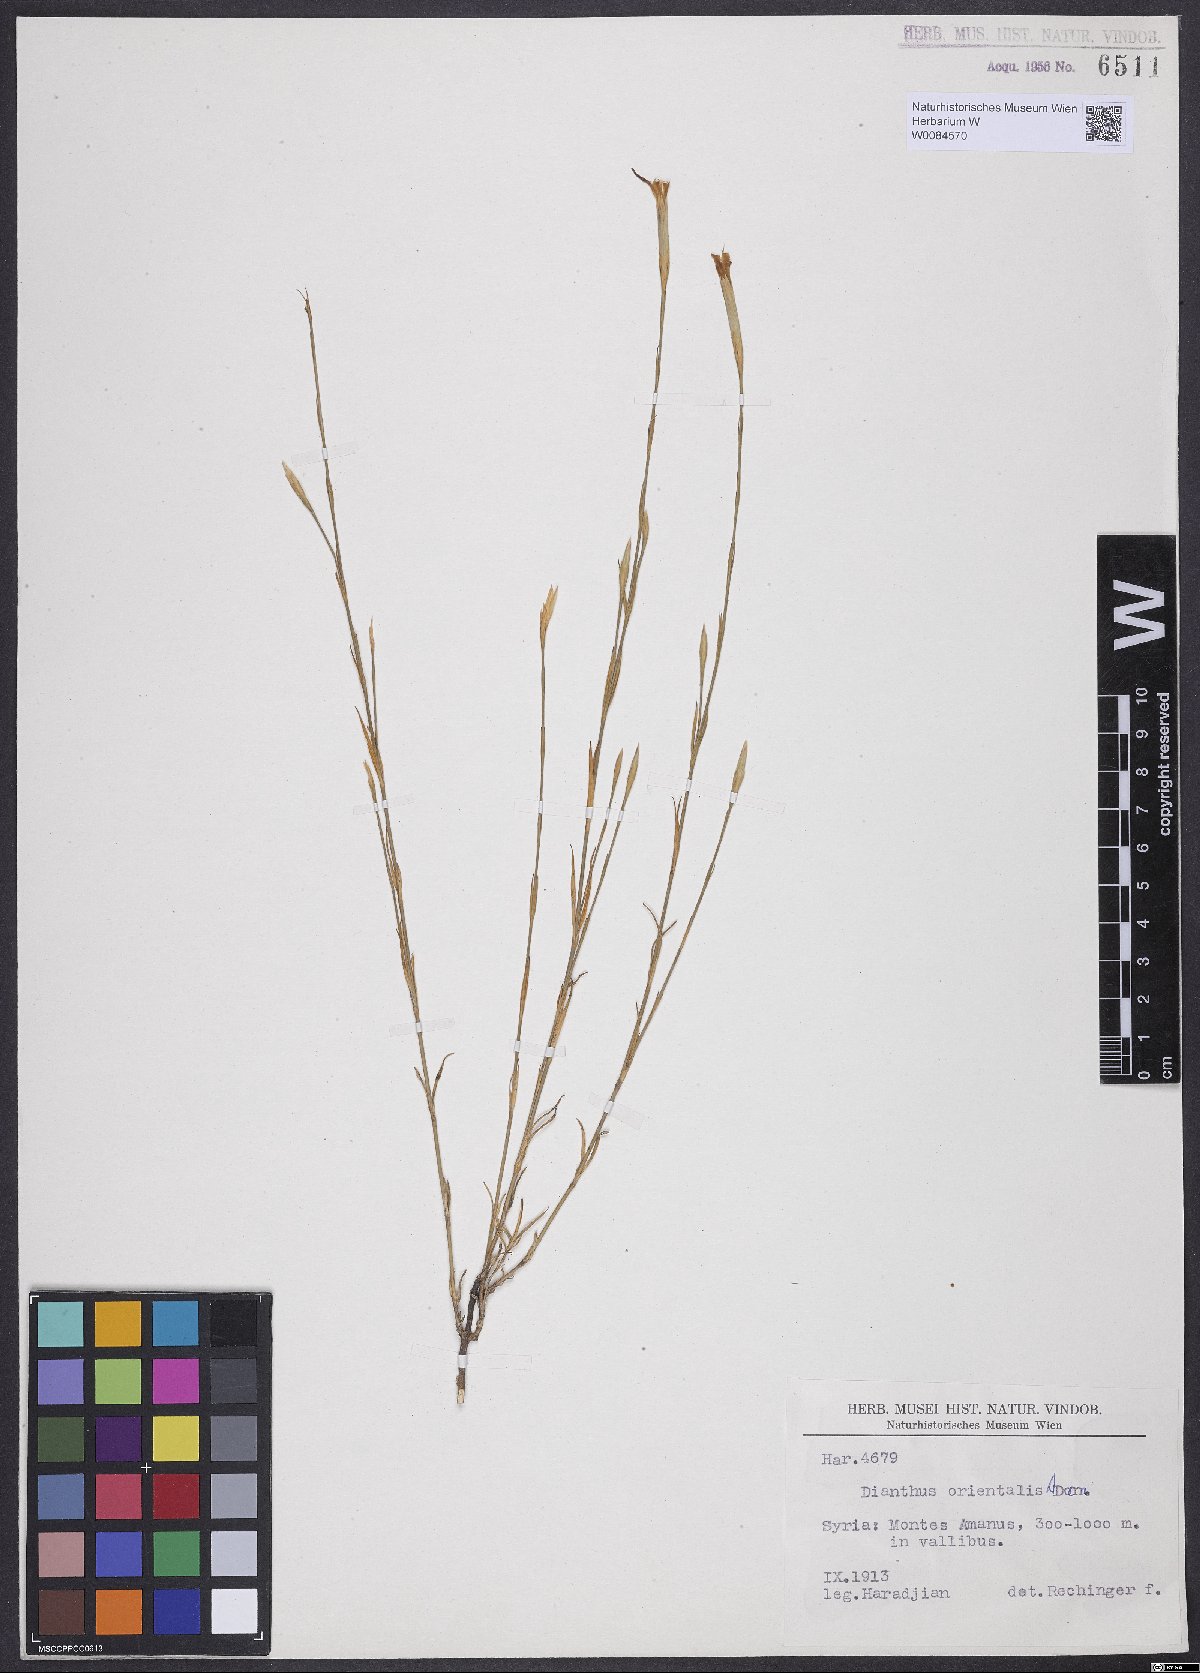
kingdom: Plantae
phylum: Tracheophyta
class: Magnoliopsida
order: Caryophyllales
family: Caryophyllaceae
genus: Dianthus
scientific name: Dianthus orientalis
